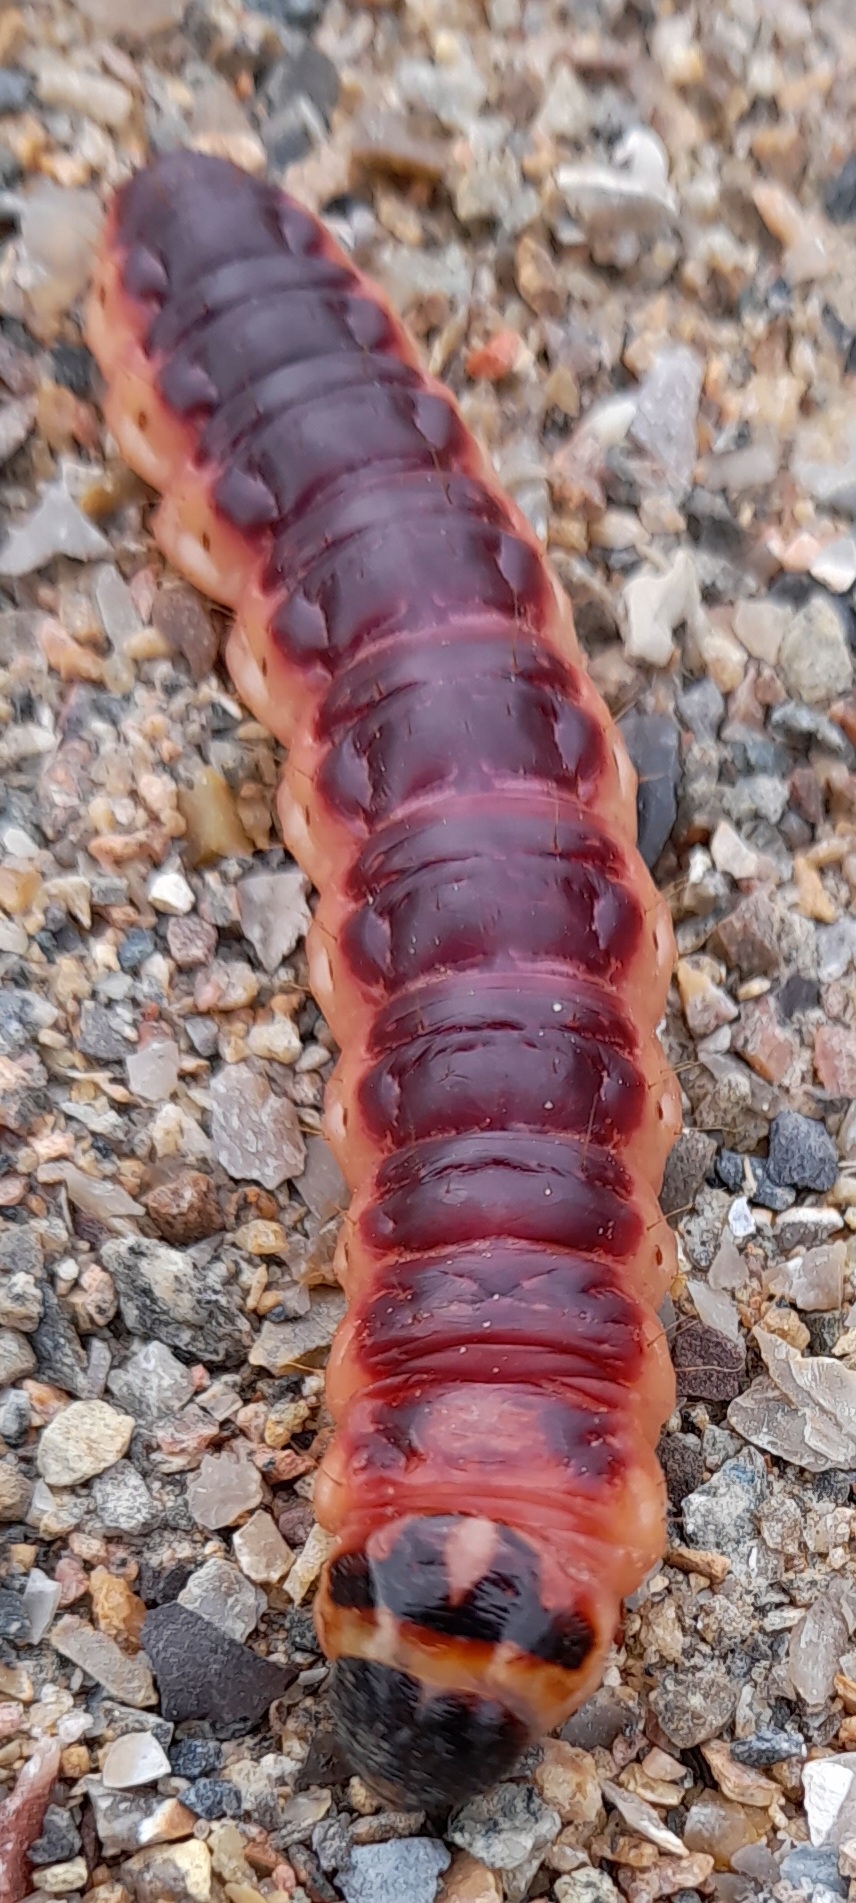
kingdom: Animalia
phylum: Arthropoda
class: Insecta
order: Lepidoptera
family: Cossidae
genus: Cossus
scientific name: Cossus cossus
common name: Pileborer
